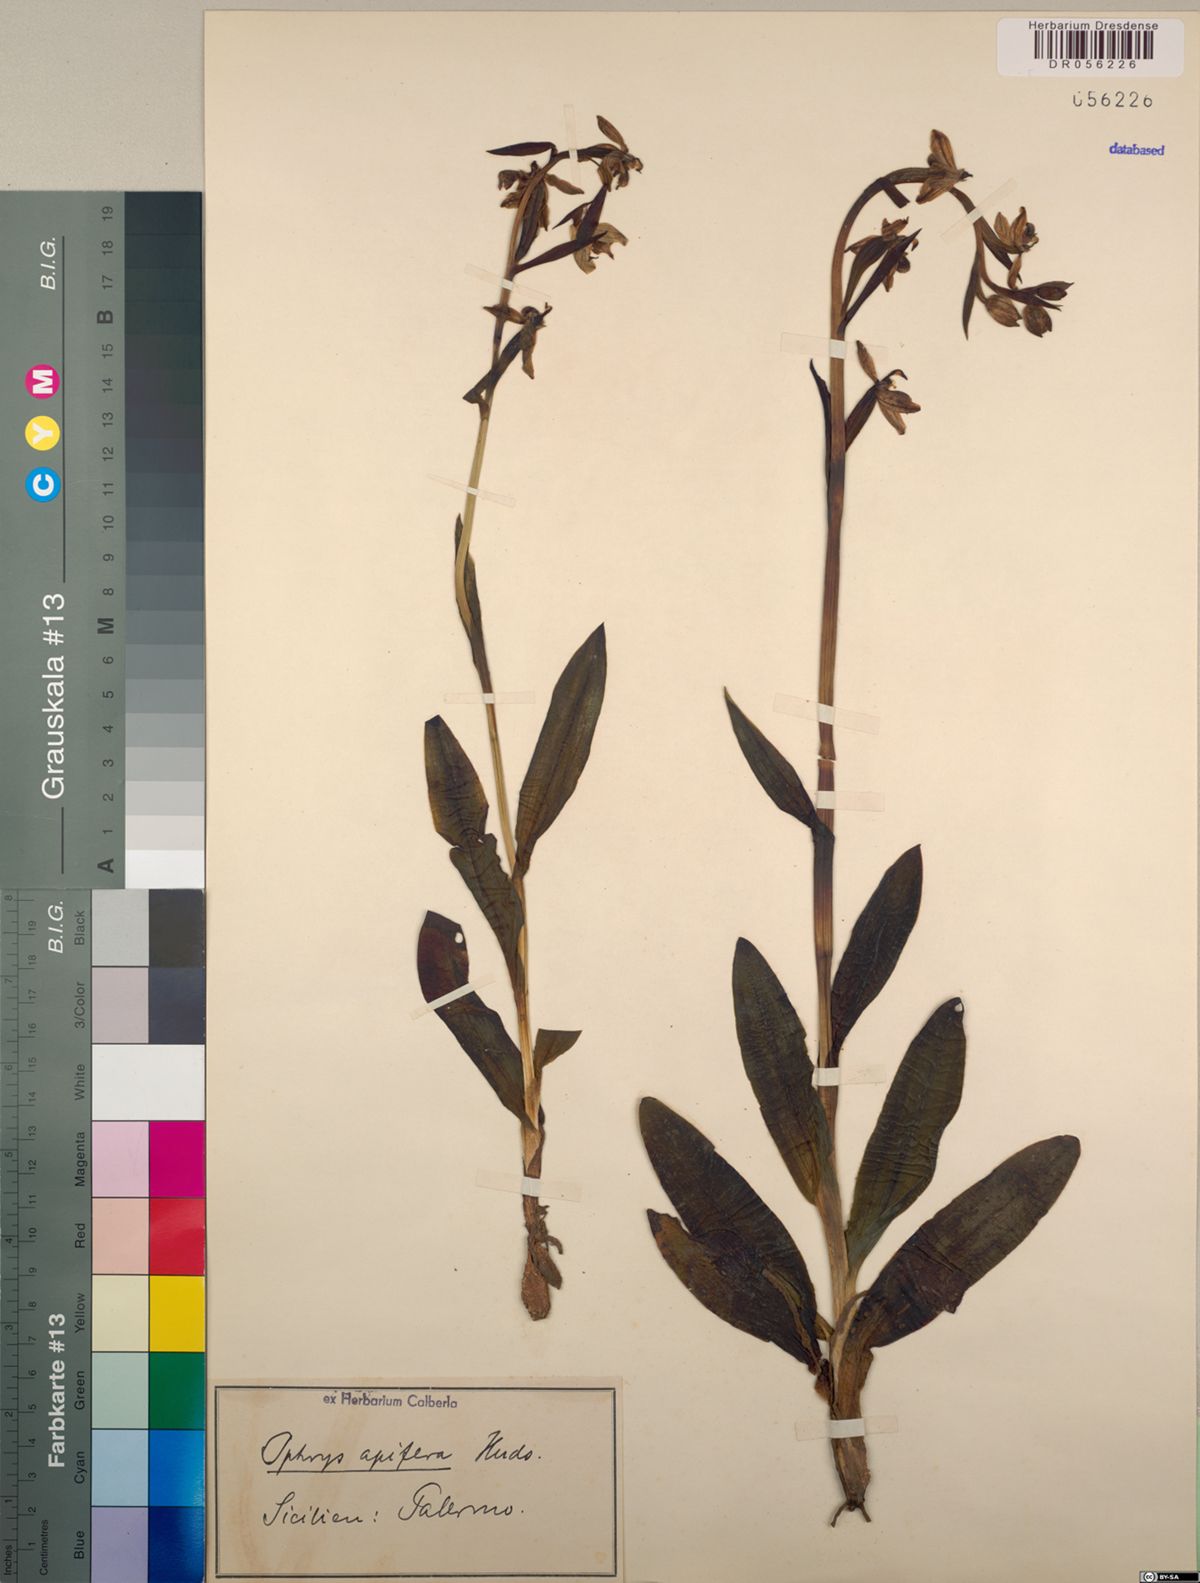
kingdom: Plantae
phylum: Tracheophyta
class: Liliopsida
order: Asparagales
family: Orchidaceae
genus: Ophrys
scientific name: Ophrys apifera
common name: Bee orchid
